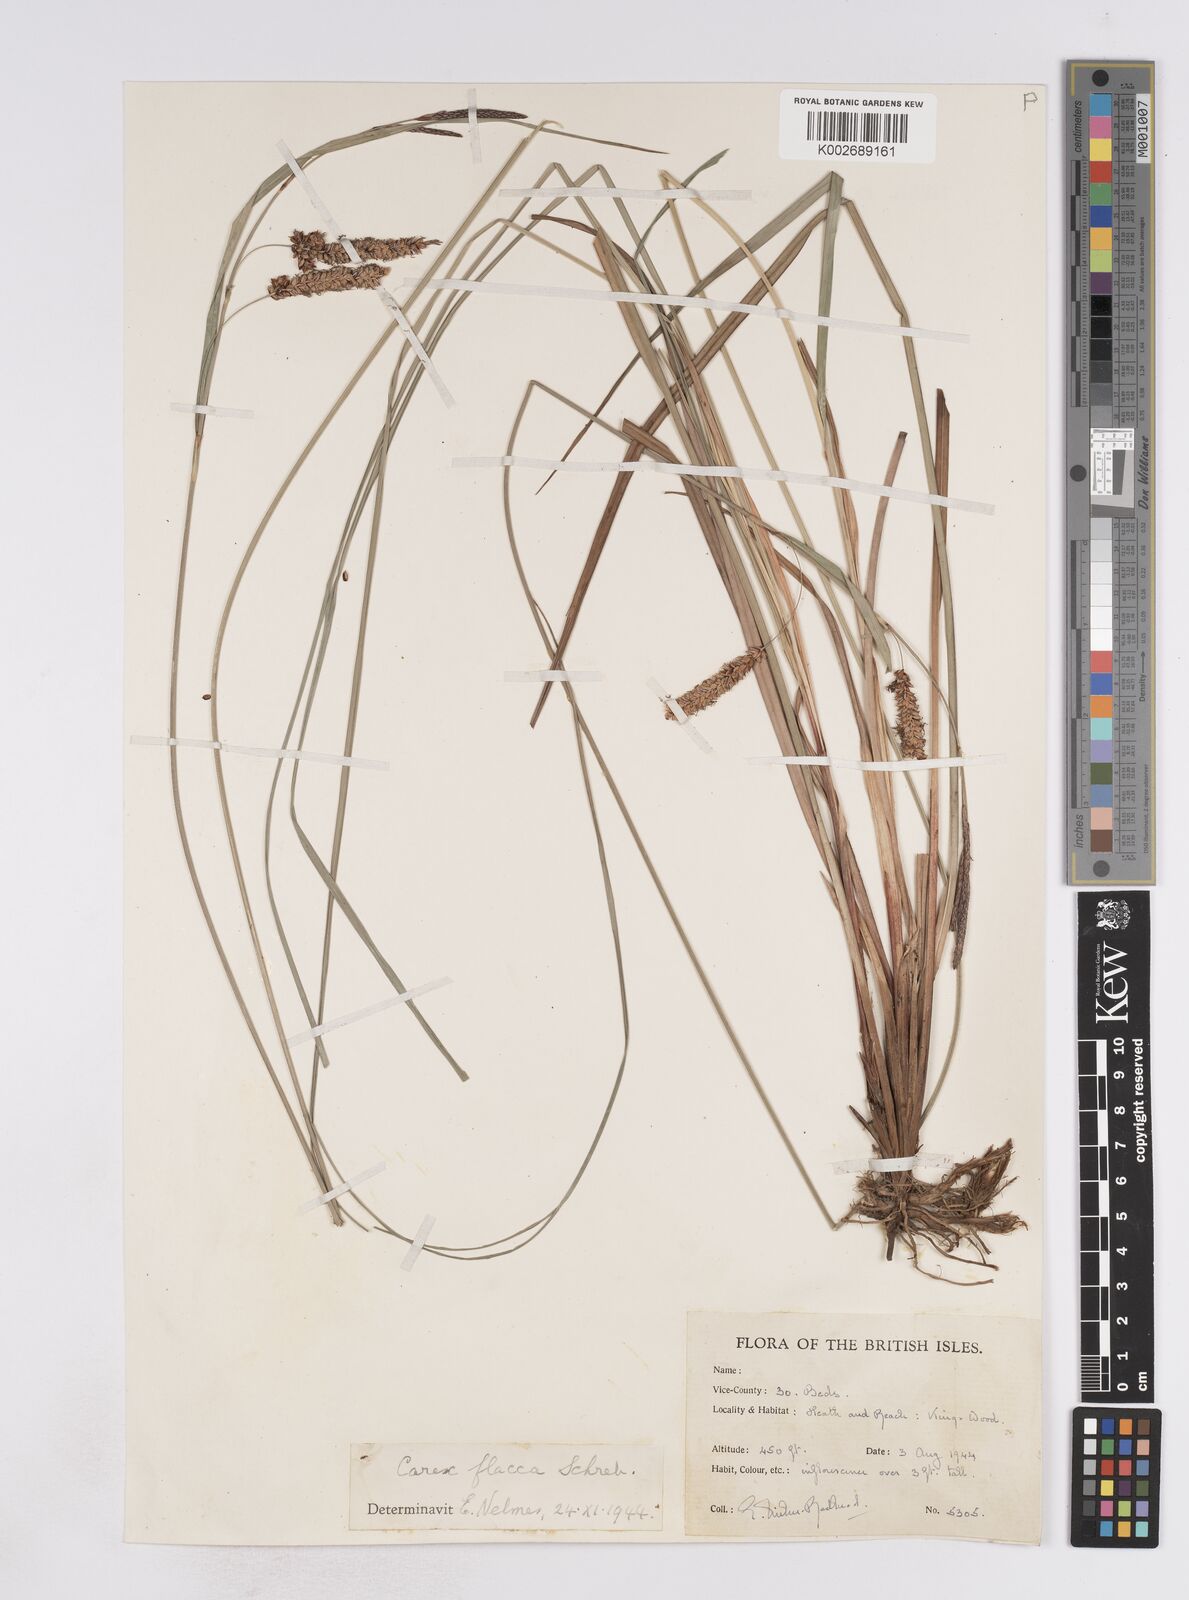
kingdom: Plantae
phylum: Tracheophyta
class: Liliopsida
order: Poales
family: Cyperaceae
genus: Carex
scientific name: Carex flacca
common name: Glaucous sedge
